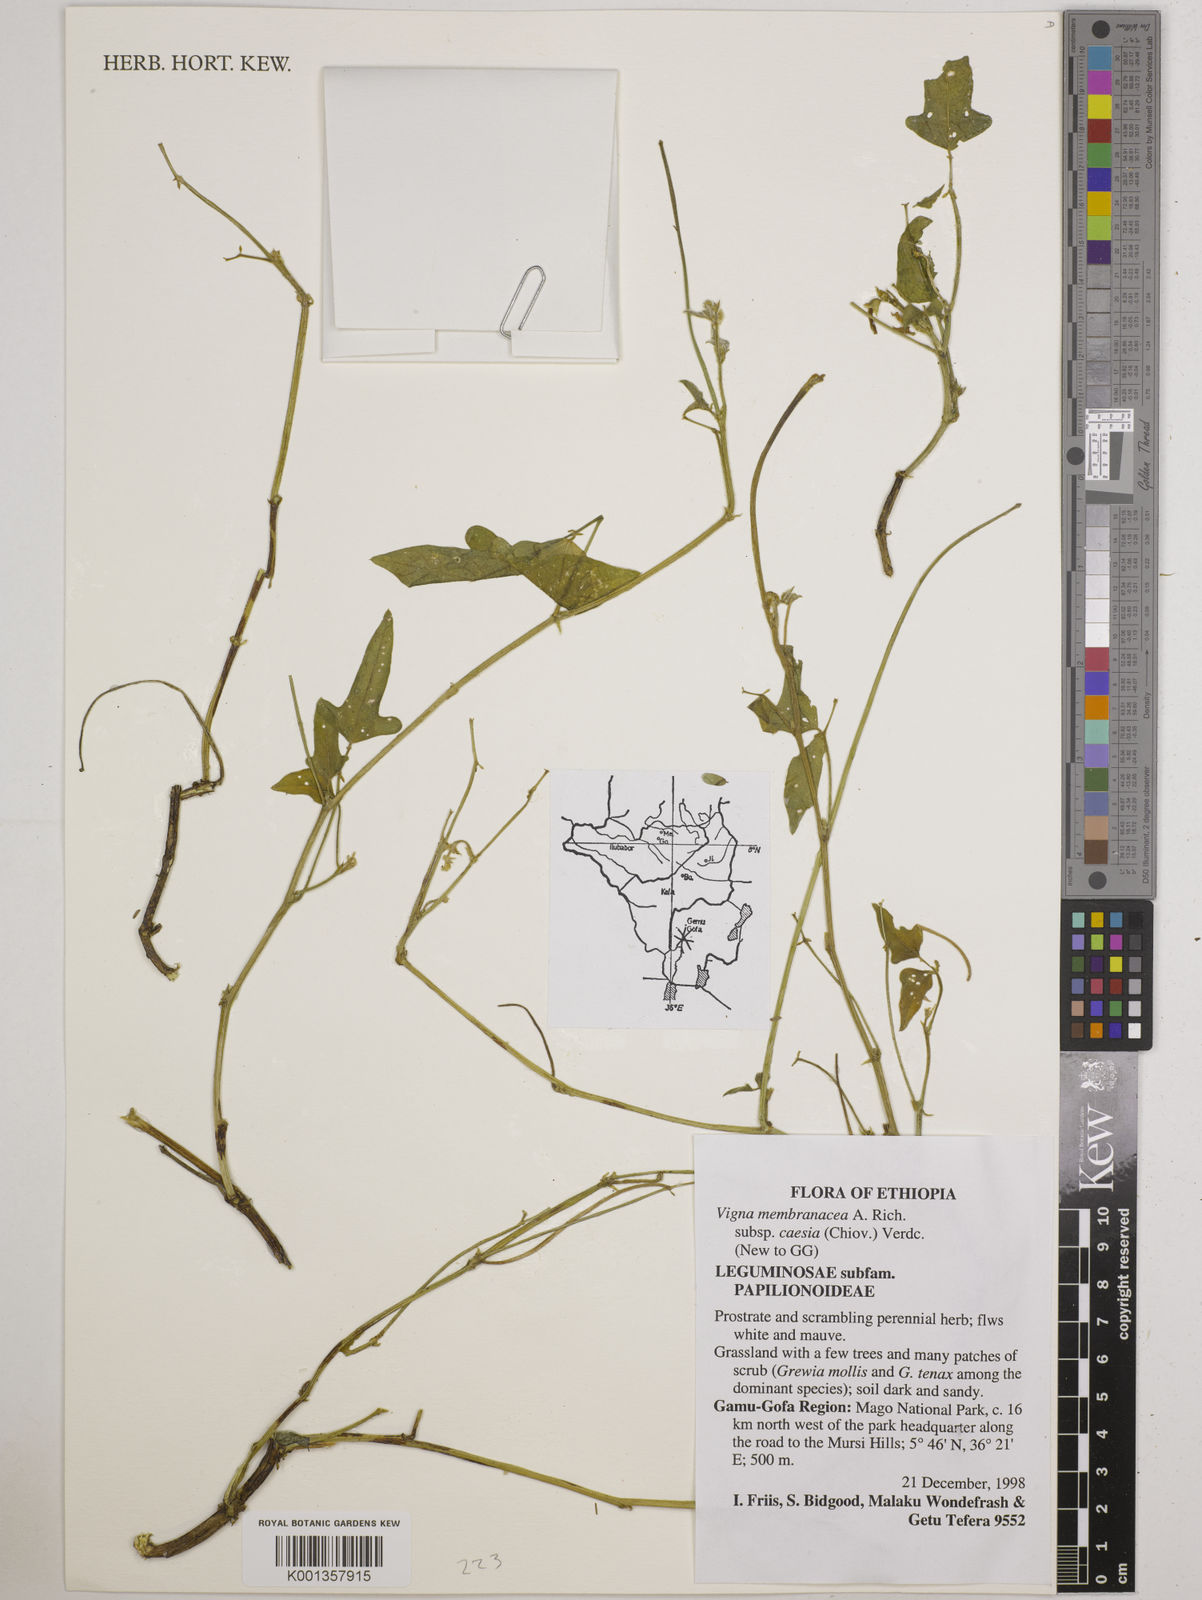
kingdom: Plantae
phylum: Tracheophyta
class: Magnoliopsida
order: Fabales
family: Fabaceae
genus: Vigna
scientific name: Vigna
